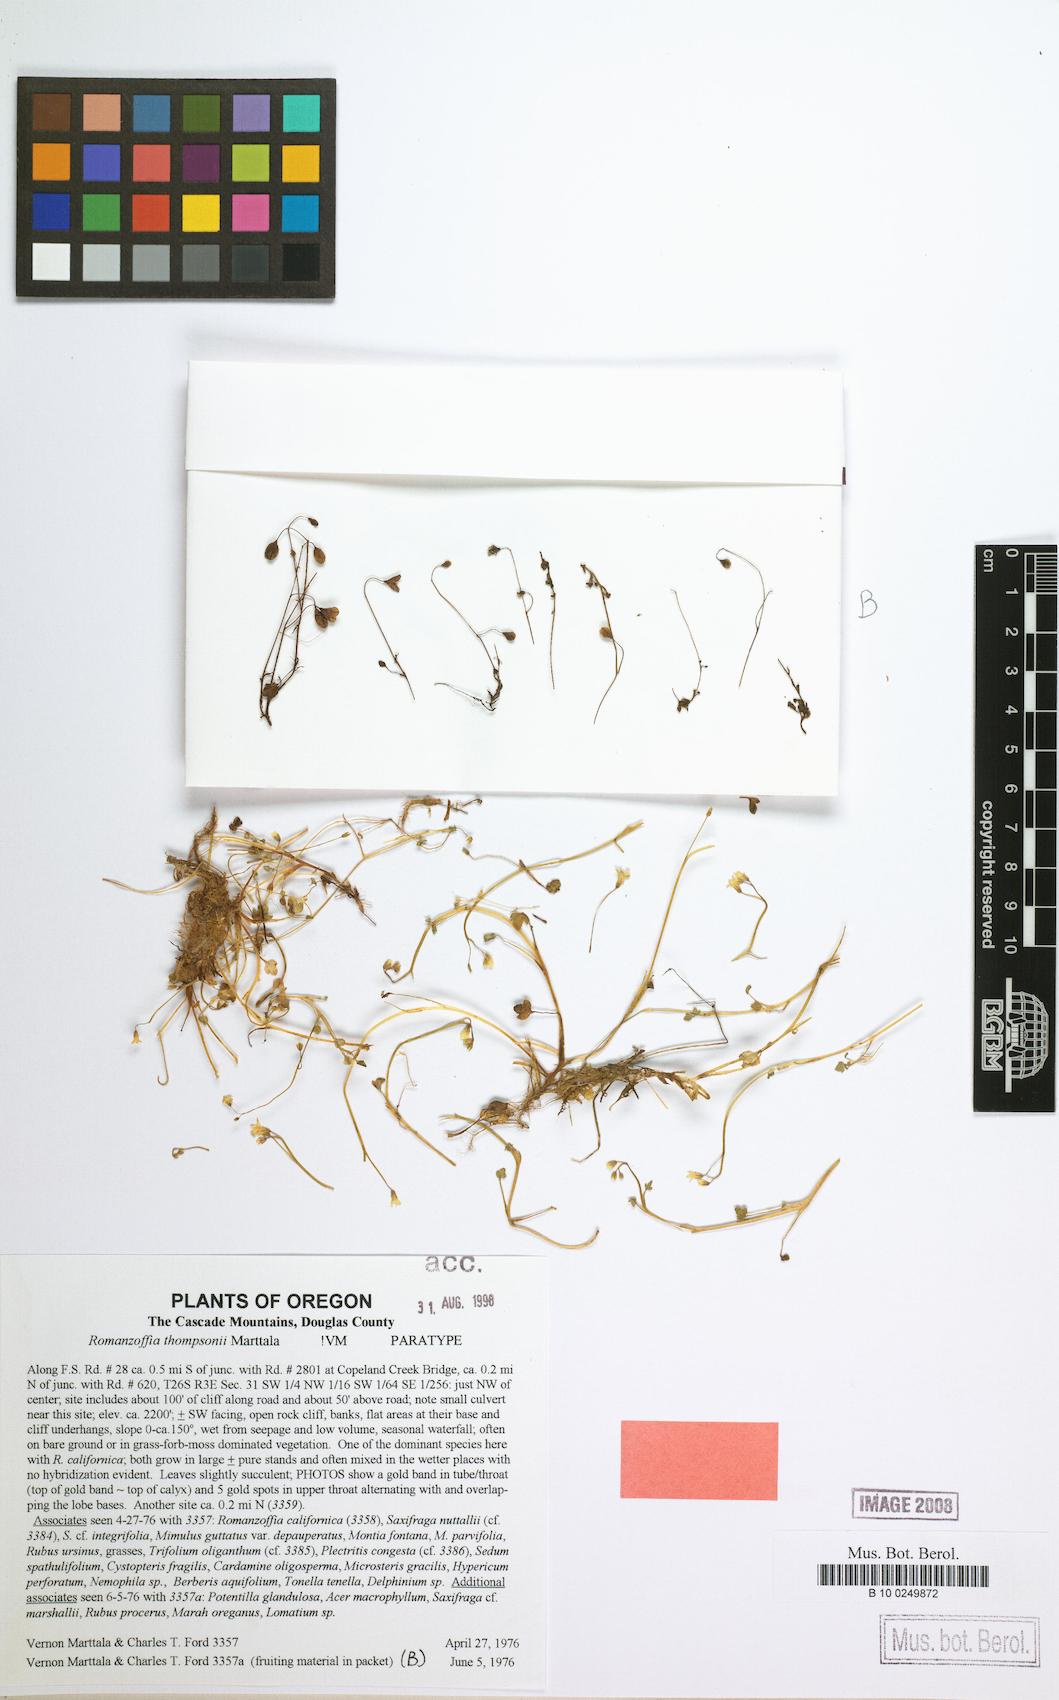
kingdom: Plantae
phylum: Tracheophyta
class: Magnoliopsida
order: Boraginales
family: Hydrophyllaceae
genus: Romanzoffia
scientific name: Romanzoffia thompsonii
